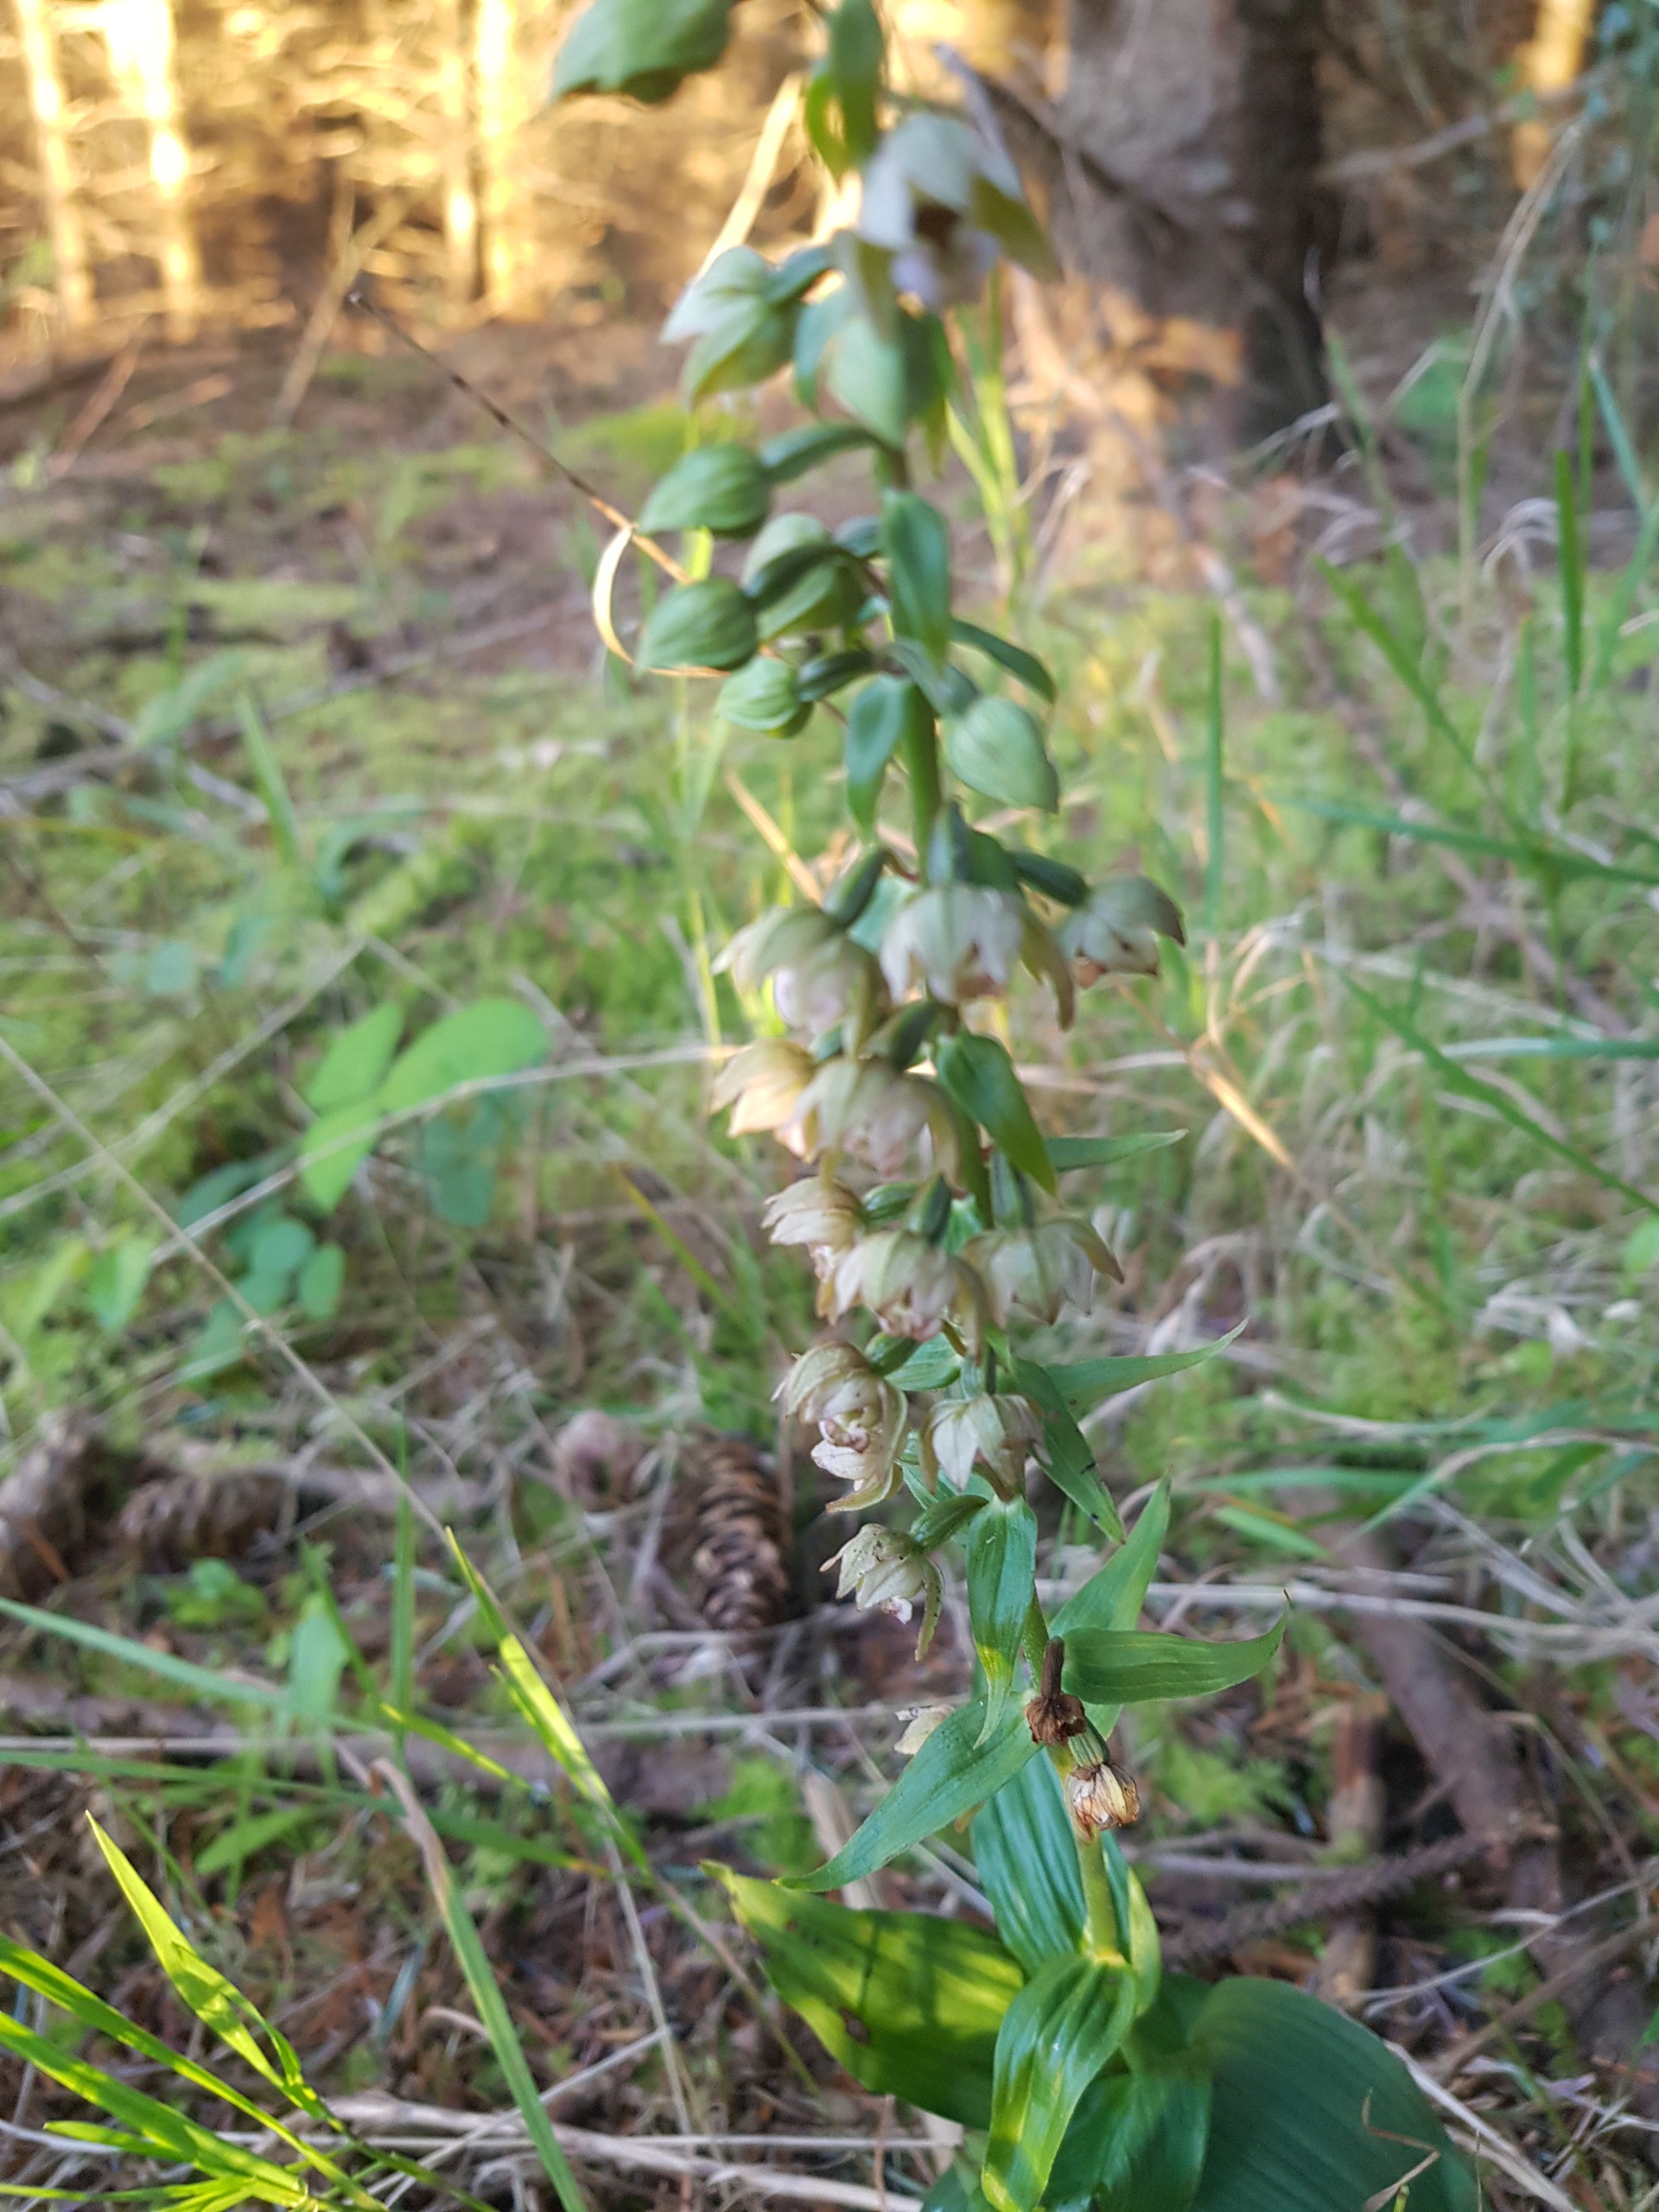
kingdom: Plantae
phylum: Tracheophyta
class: Liliopsida
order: Asparagales
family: Orchidaceae
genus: Epipactis
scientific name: Epipactis helleborine
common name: Skov-hullæbe
